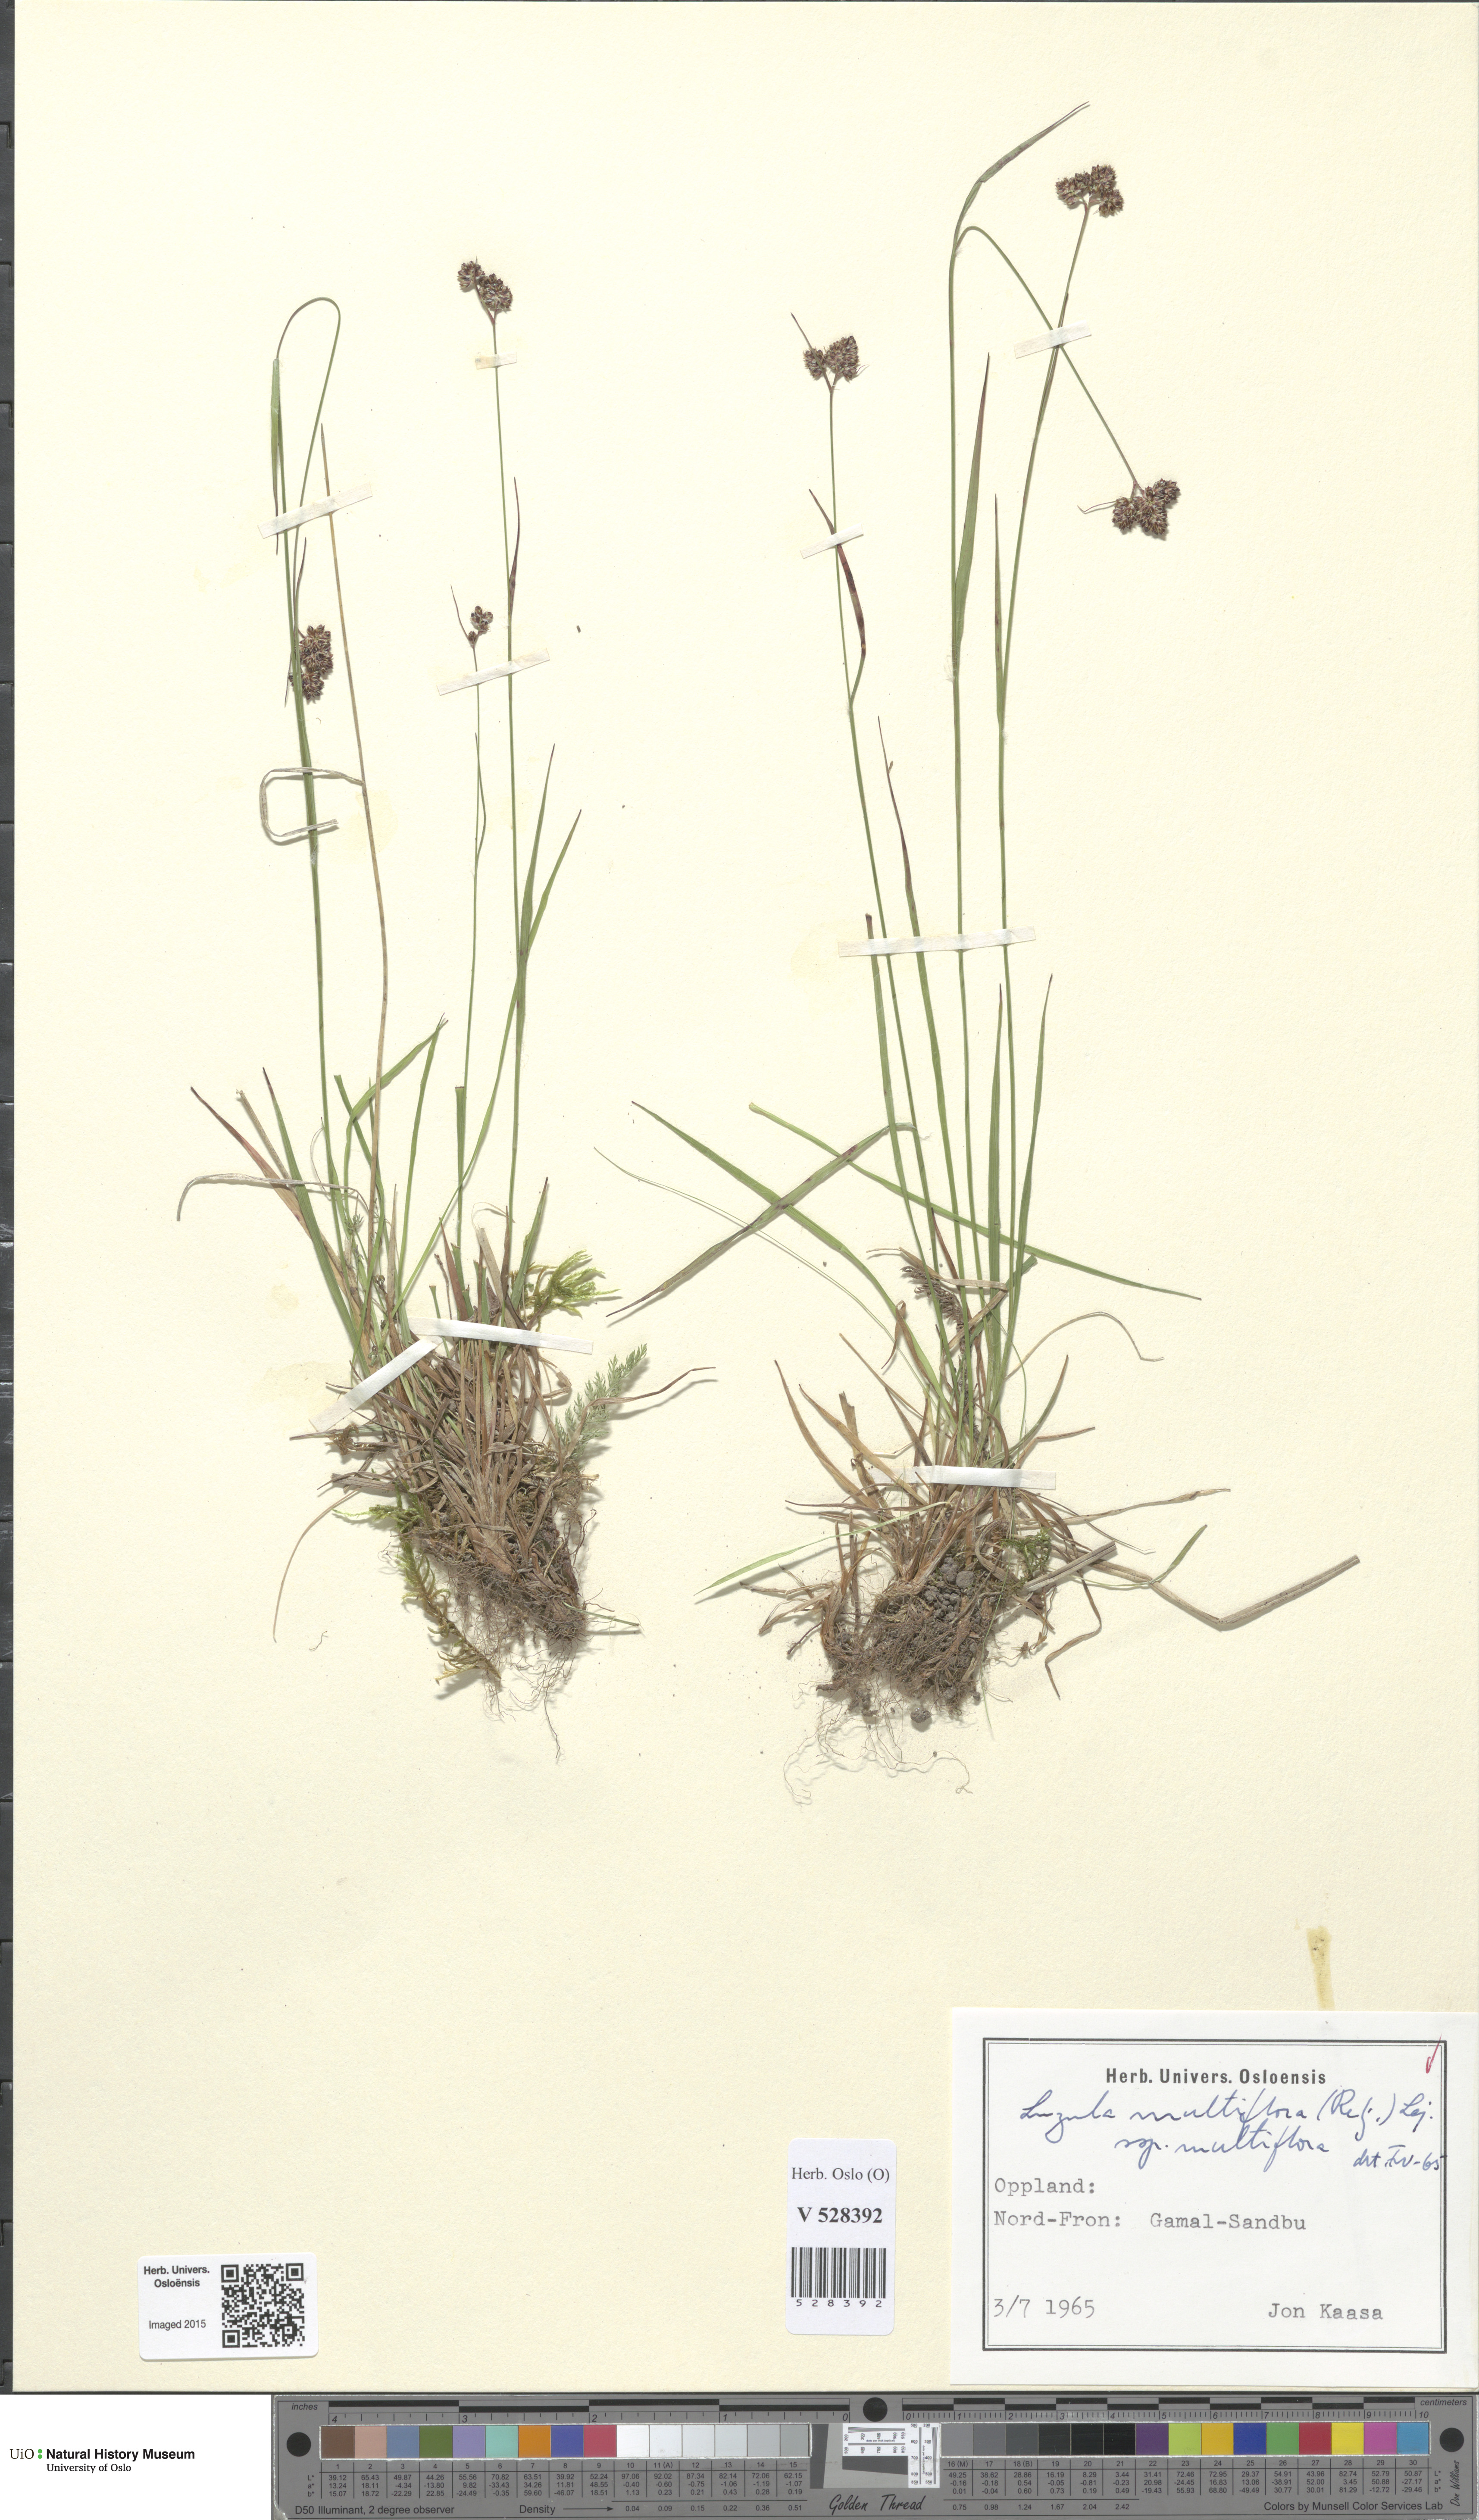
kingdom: Plantae
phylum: Tracheophyta
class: Liliopsida
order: Poales
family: Juncaceae
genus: Luzula
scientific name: Luzula multiflora
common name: Heath wood-rush
